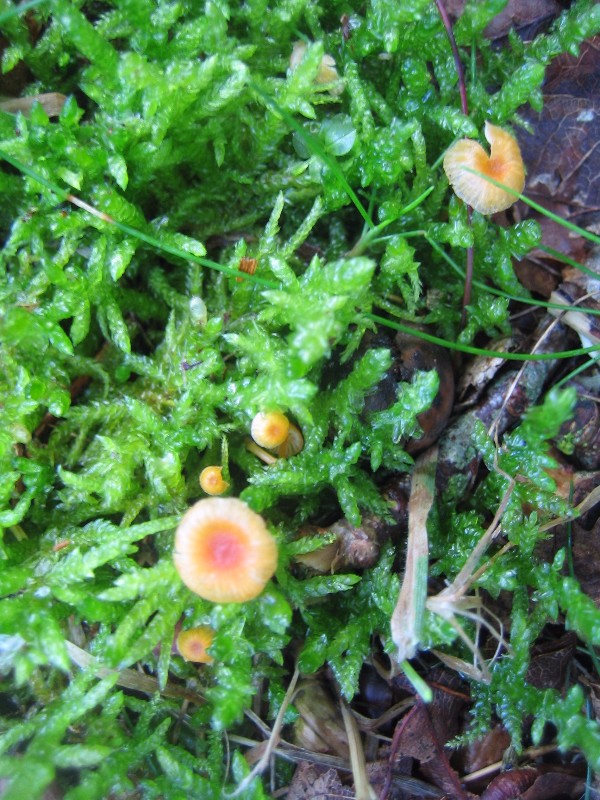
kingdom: Fungi
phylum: Basidiomycota
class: Agaricomycetes
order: Hymenochaetales
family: Rickenellaceae
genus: Rickenella
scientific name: Rickenella fibula
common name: orange mosnavlehat
